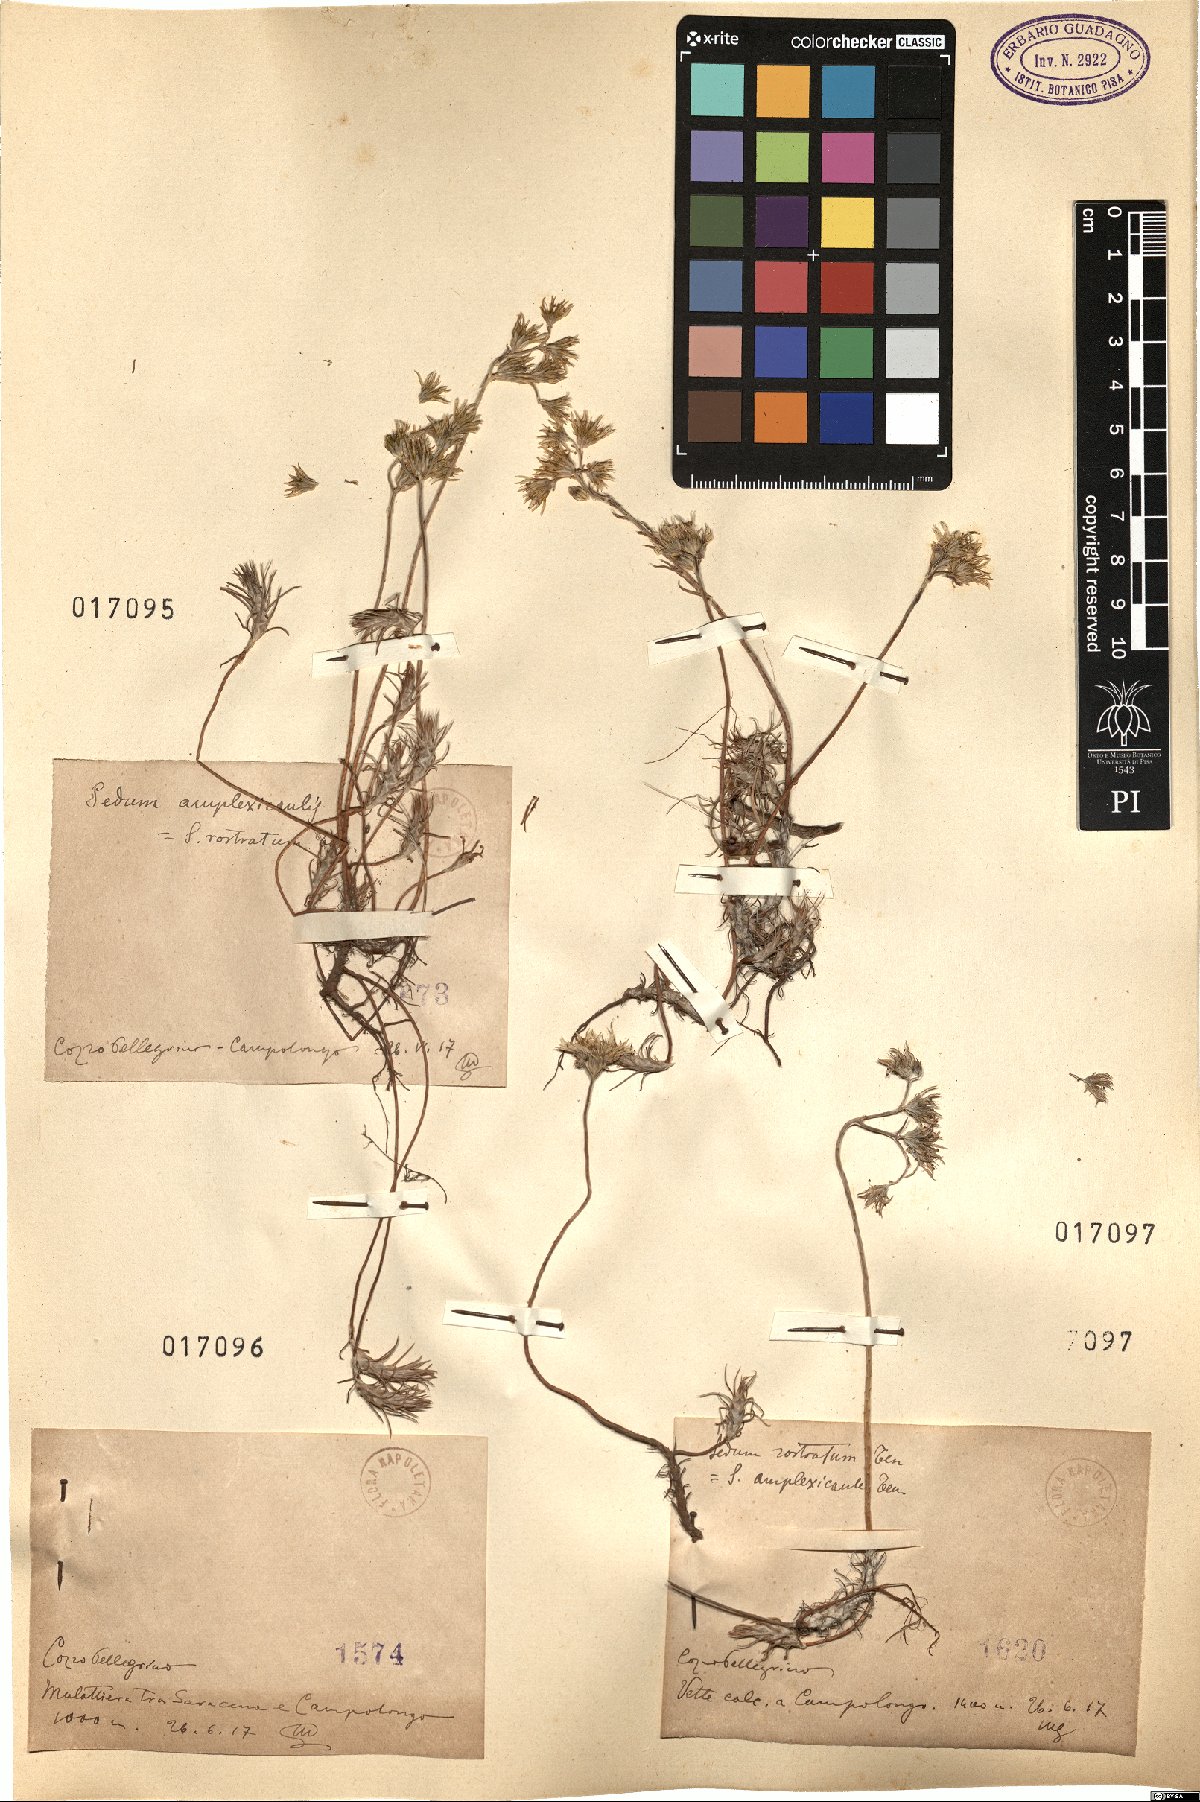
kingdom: Plantae
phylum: Tracheophyta
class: Magnoliopsida
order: Saxifragales
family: Crassulaceae
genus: Petrosedum
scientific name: Petrosedum amplexicaule
